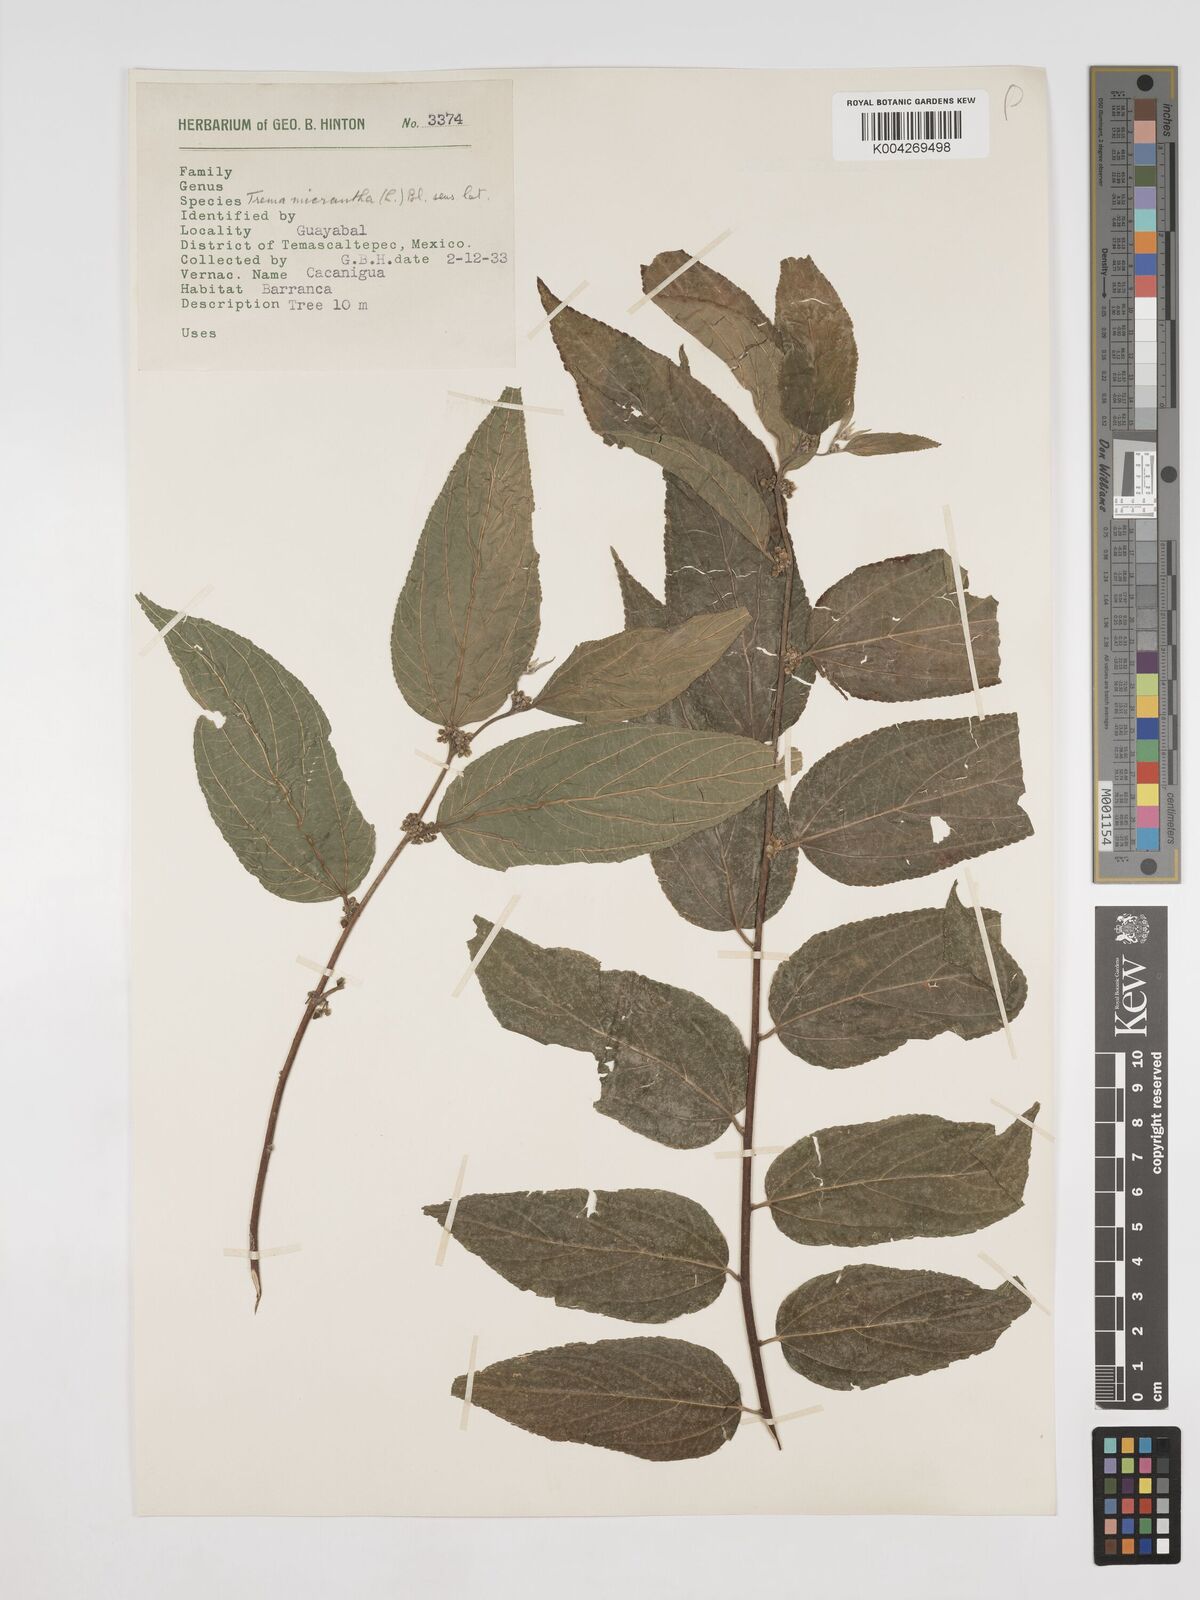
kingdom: Plantae
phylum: Tracheophyta
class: Magnoliopsida
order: Rosales
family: Cannabaceae
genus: Trema
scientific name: Trema micranthum
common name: Jamaican nettletree
